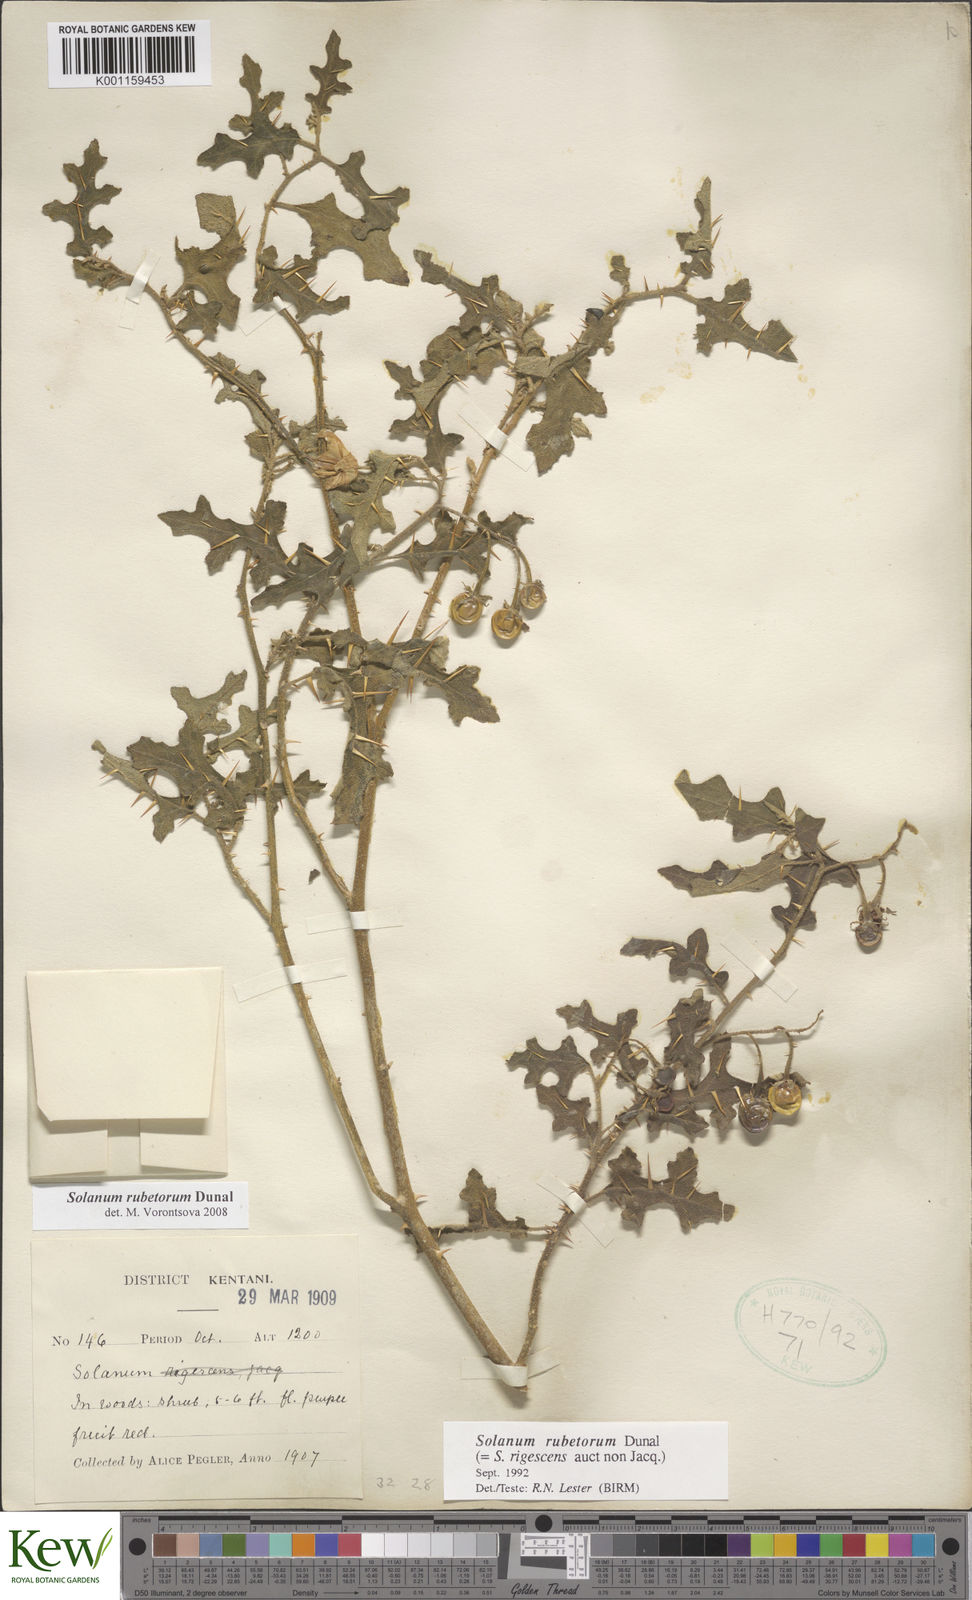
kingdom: Plantae
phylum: Tracheophyta
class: Magnoliopsida
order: Solanales
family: Solanaceae
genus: Solanum
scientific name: Solanum rubetorum
